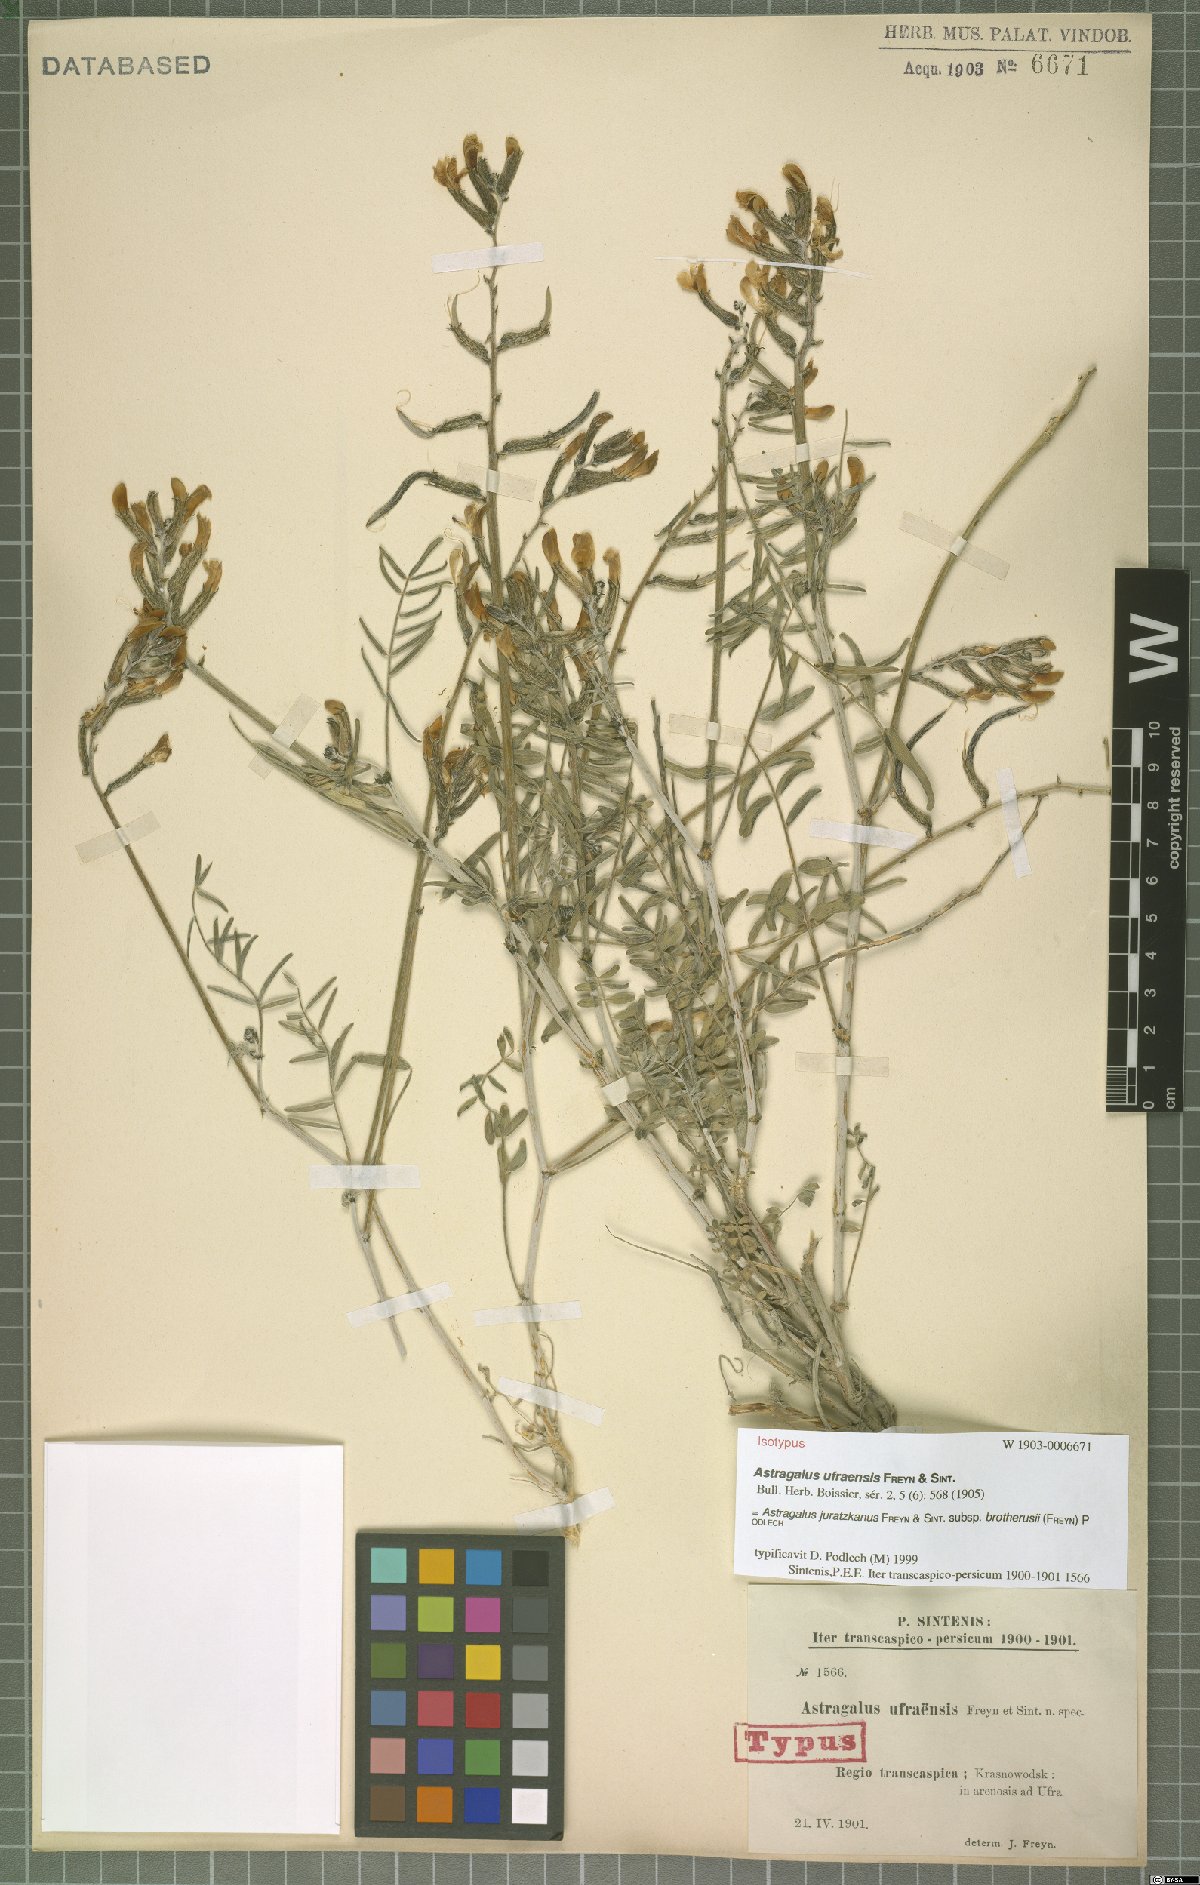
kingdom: Plantae
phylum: Tracheophyta
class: Magnoliopsida
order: Fabales
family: Fabaceae
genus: Astragalus
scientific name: Astragalus juratzkanus
